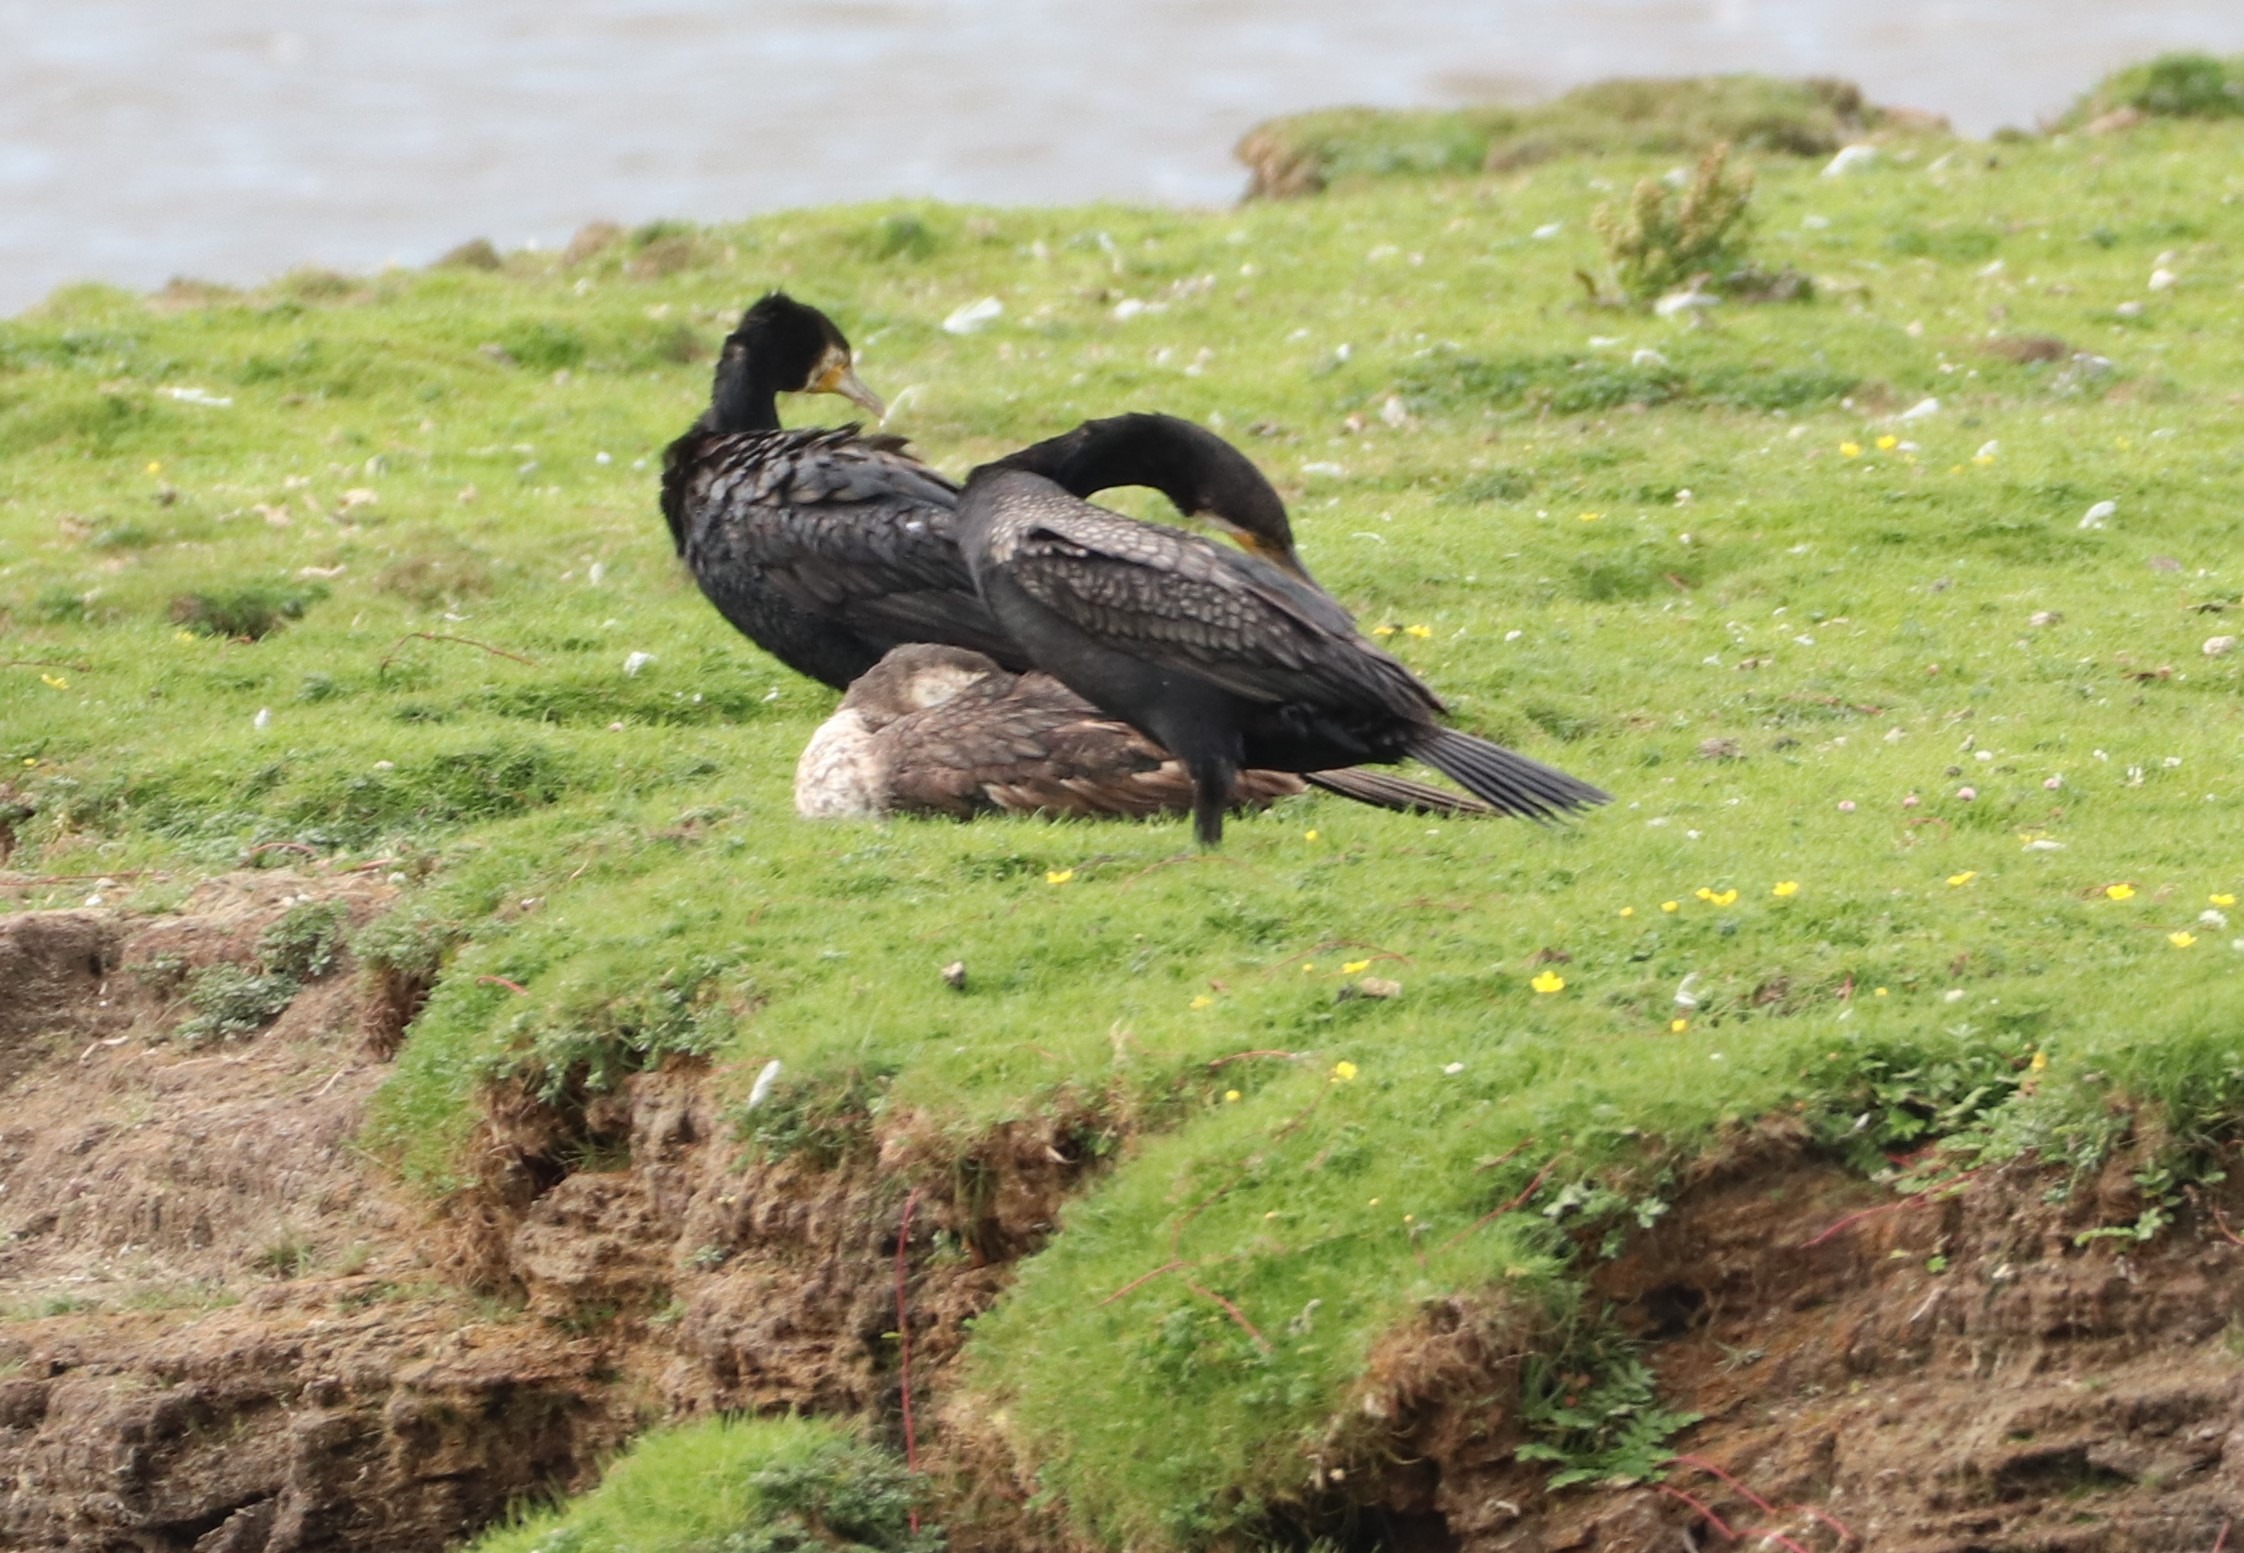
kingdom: Animalia
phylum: Chordata
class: Aves
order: Suliformes
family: Phalacrocoracidae
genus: Phalacrocorax
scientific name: Phalacrocorax carbo
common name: Skarv
